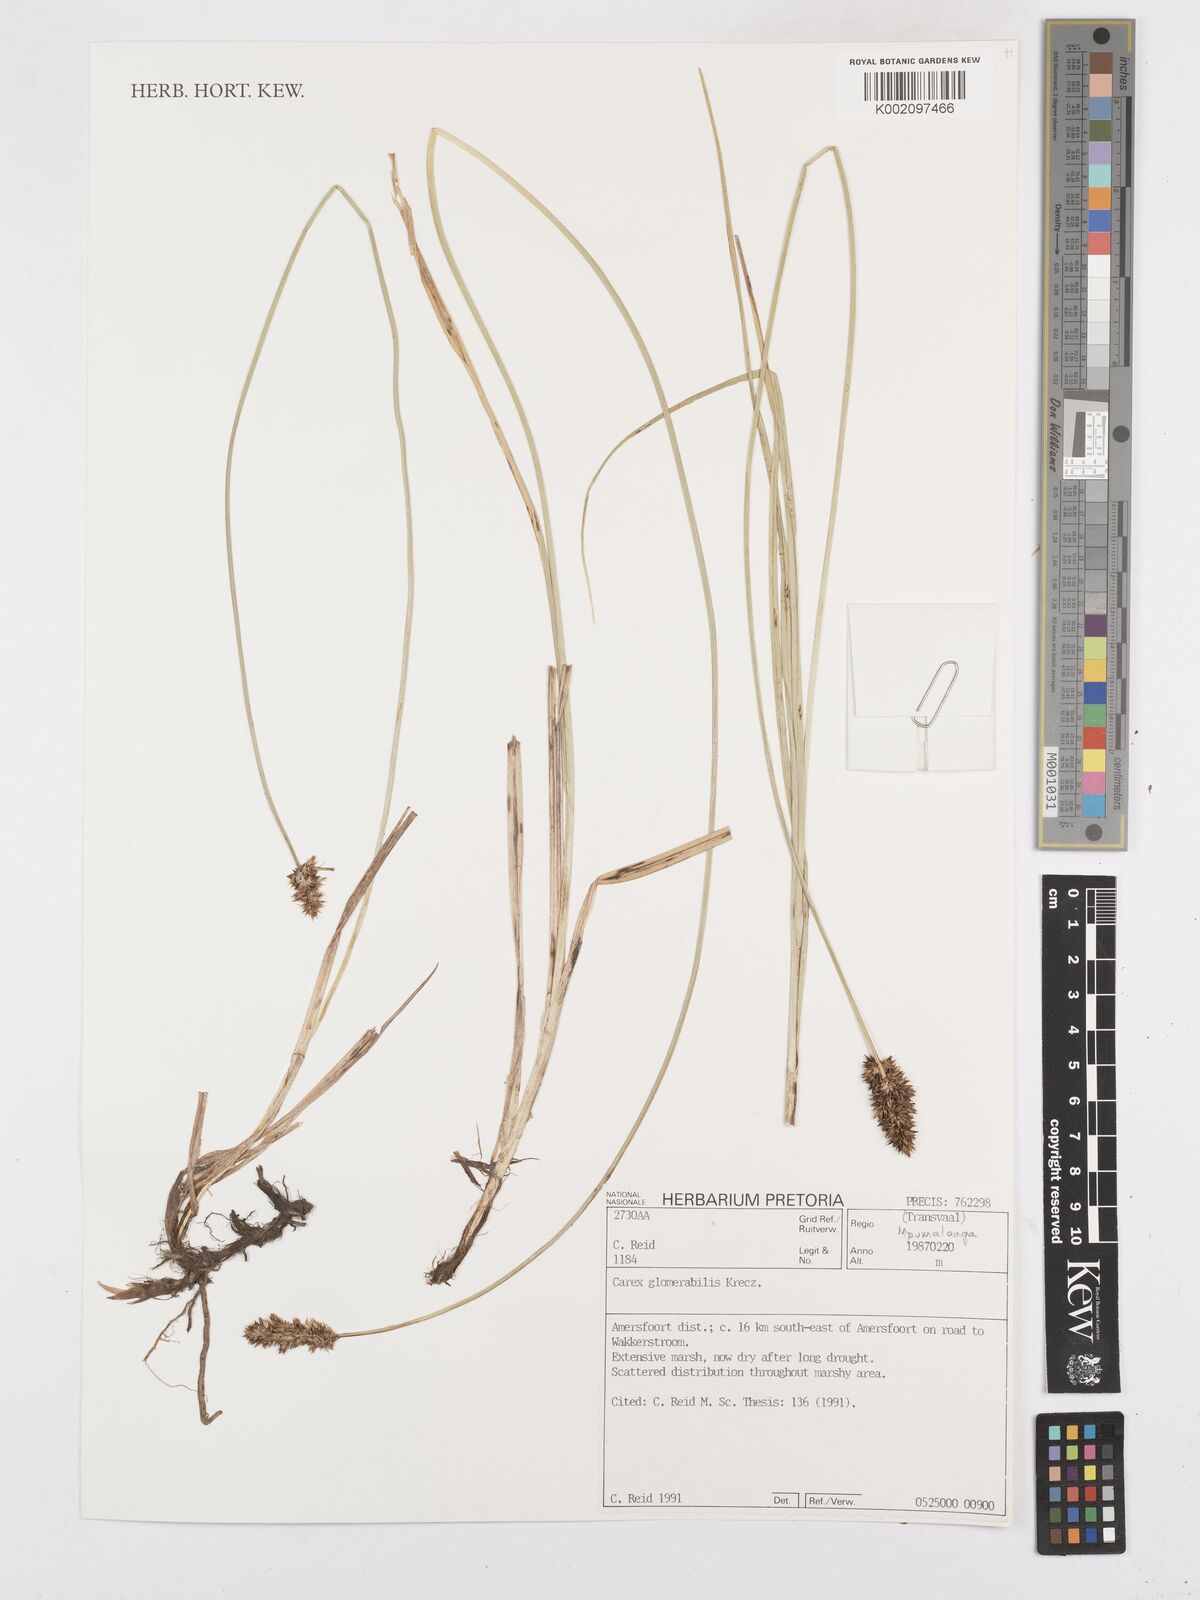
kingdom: Plantae
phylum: Tracheophyta
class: Liliopsida
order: Poales
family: Cyperaceae
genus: Carex
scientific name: Carex glomerata
